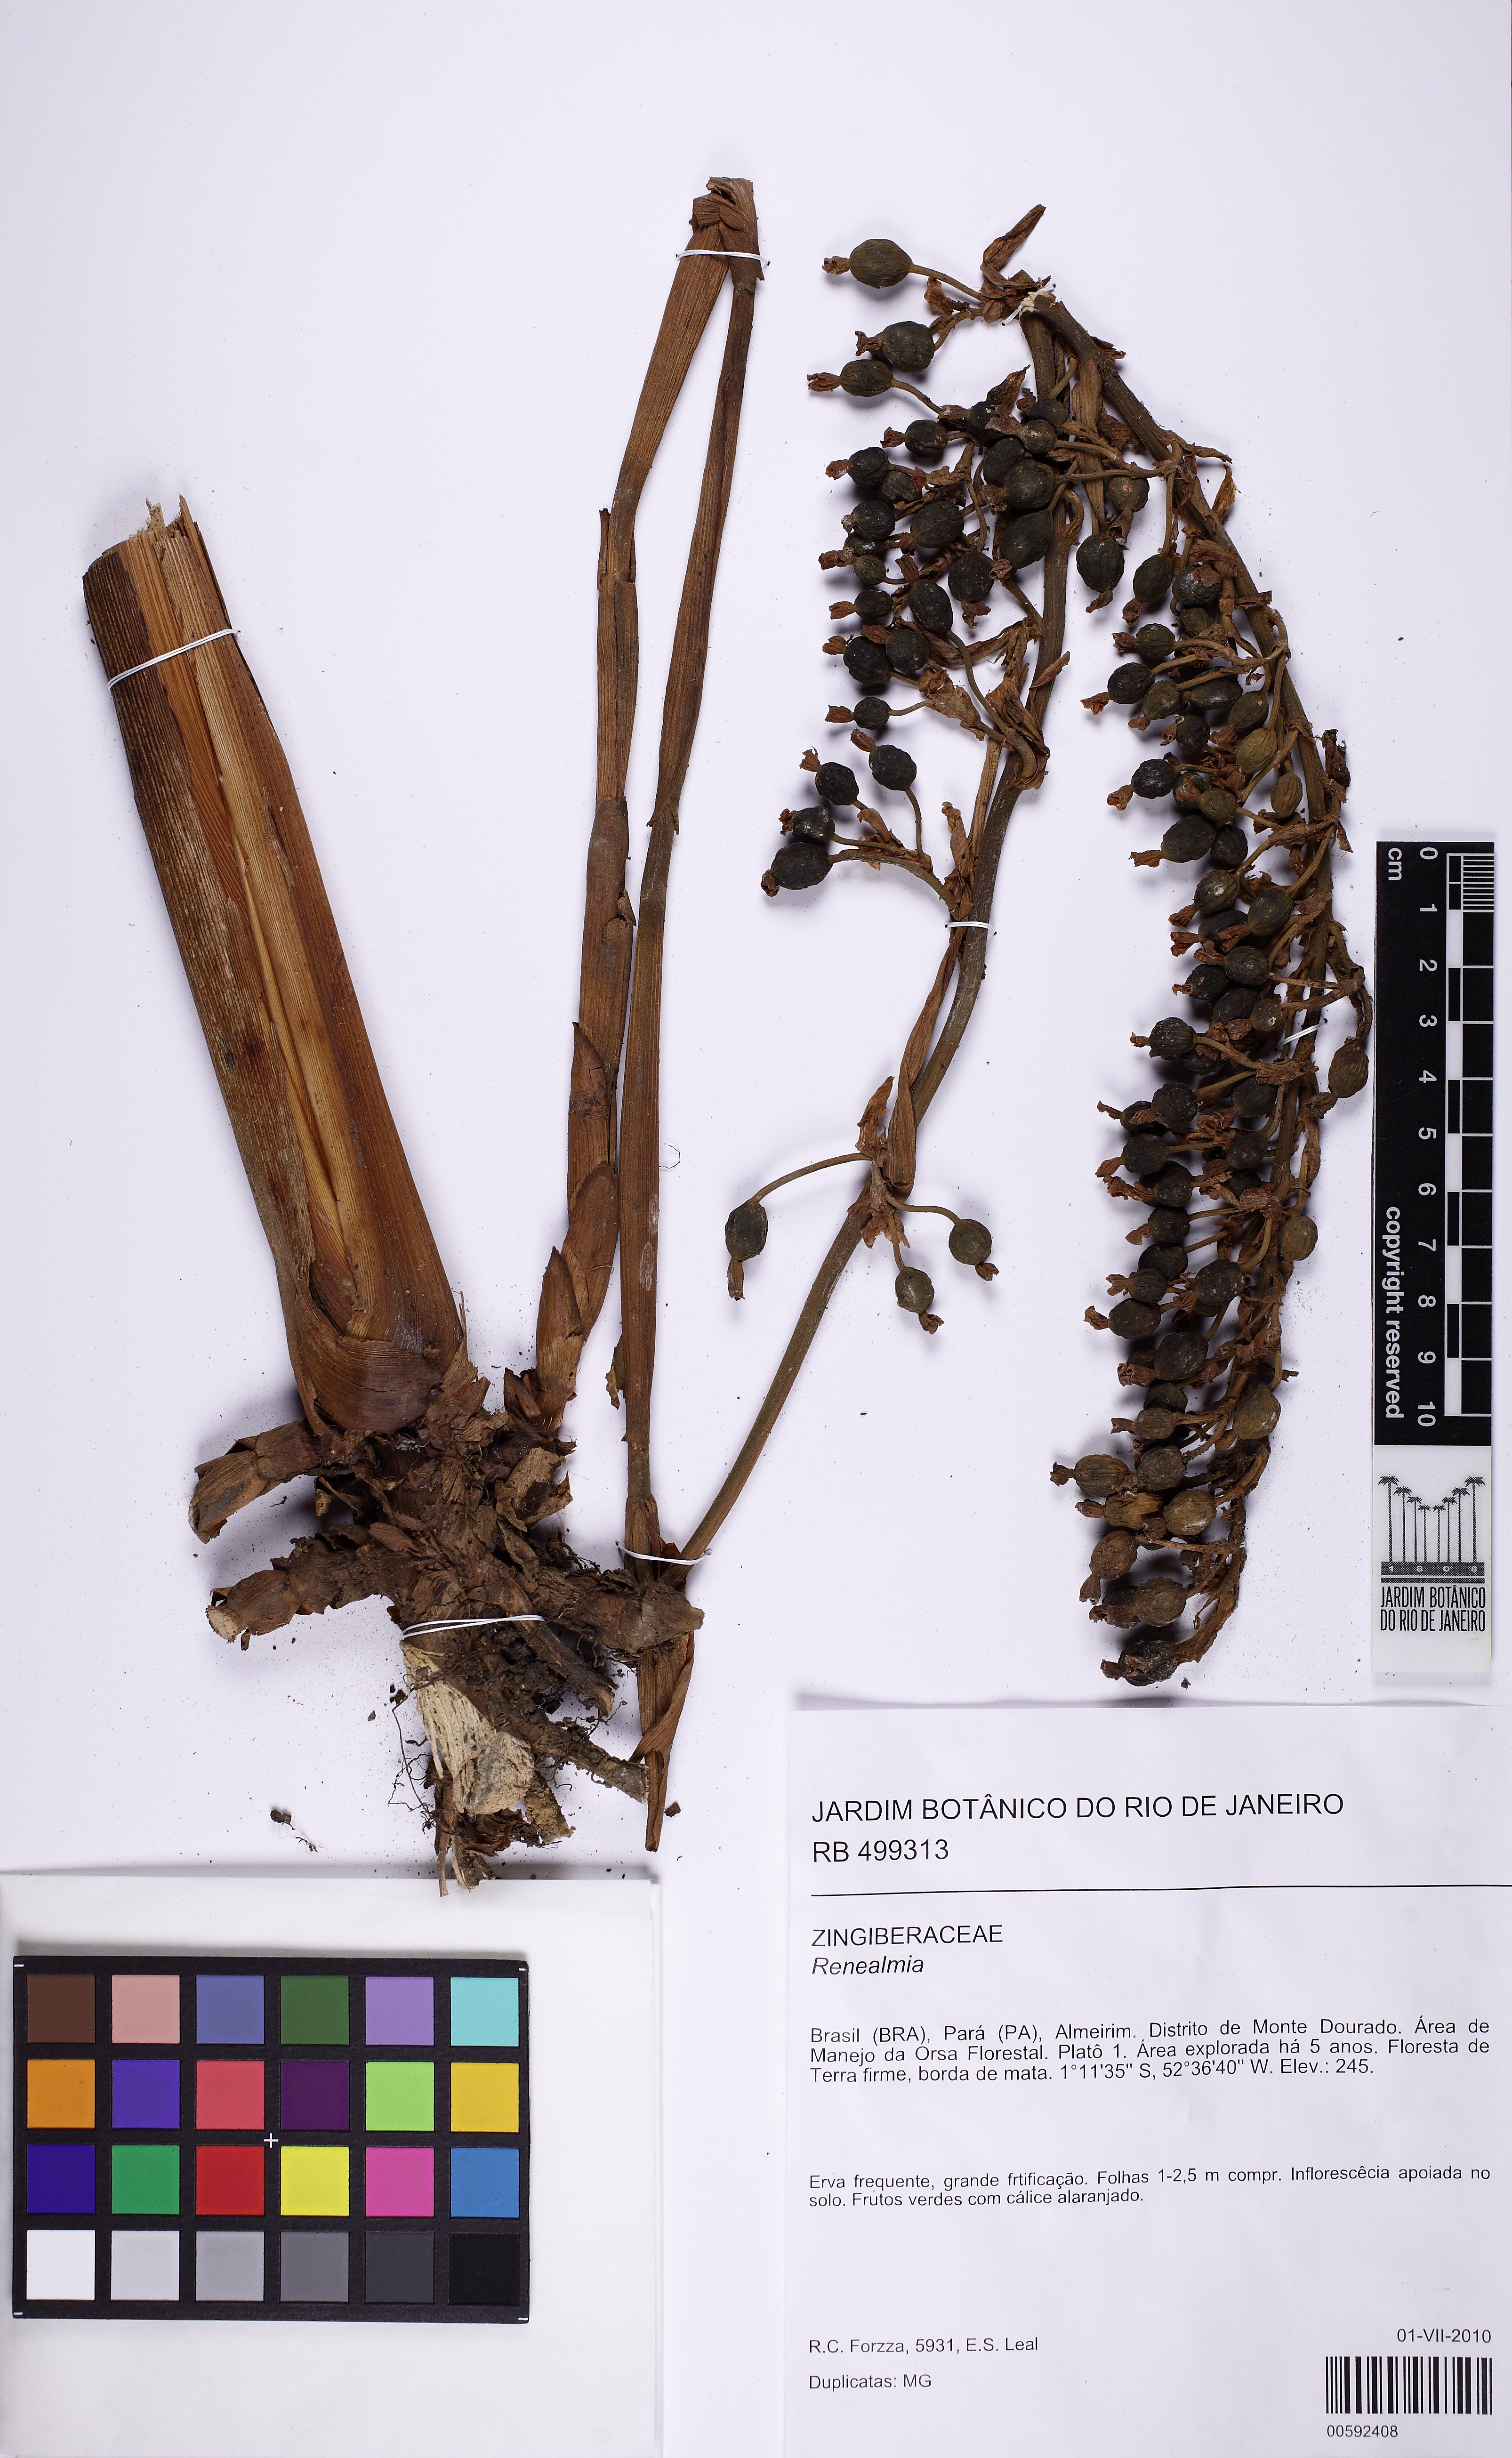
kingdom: Plantae
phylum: Tracheophyta
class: Liliopsida
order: Zingiberales
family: Zingiberaceae
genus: Renealmia
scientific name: Renealmia
